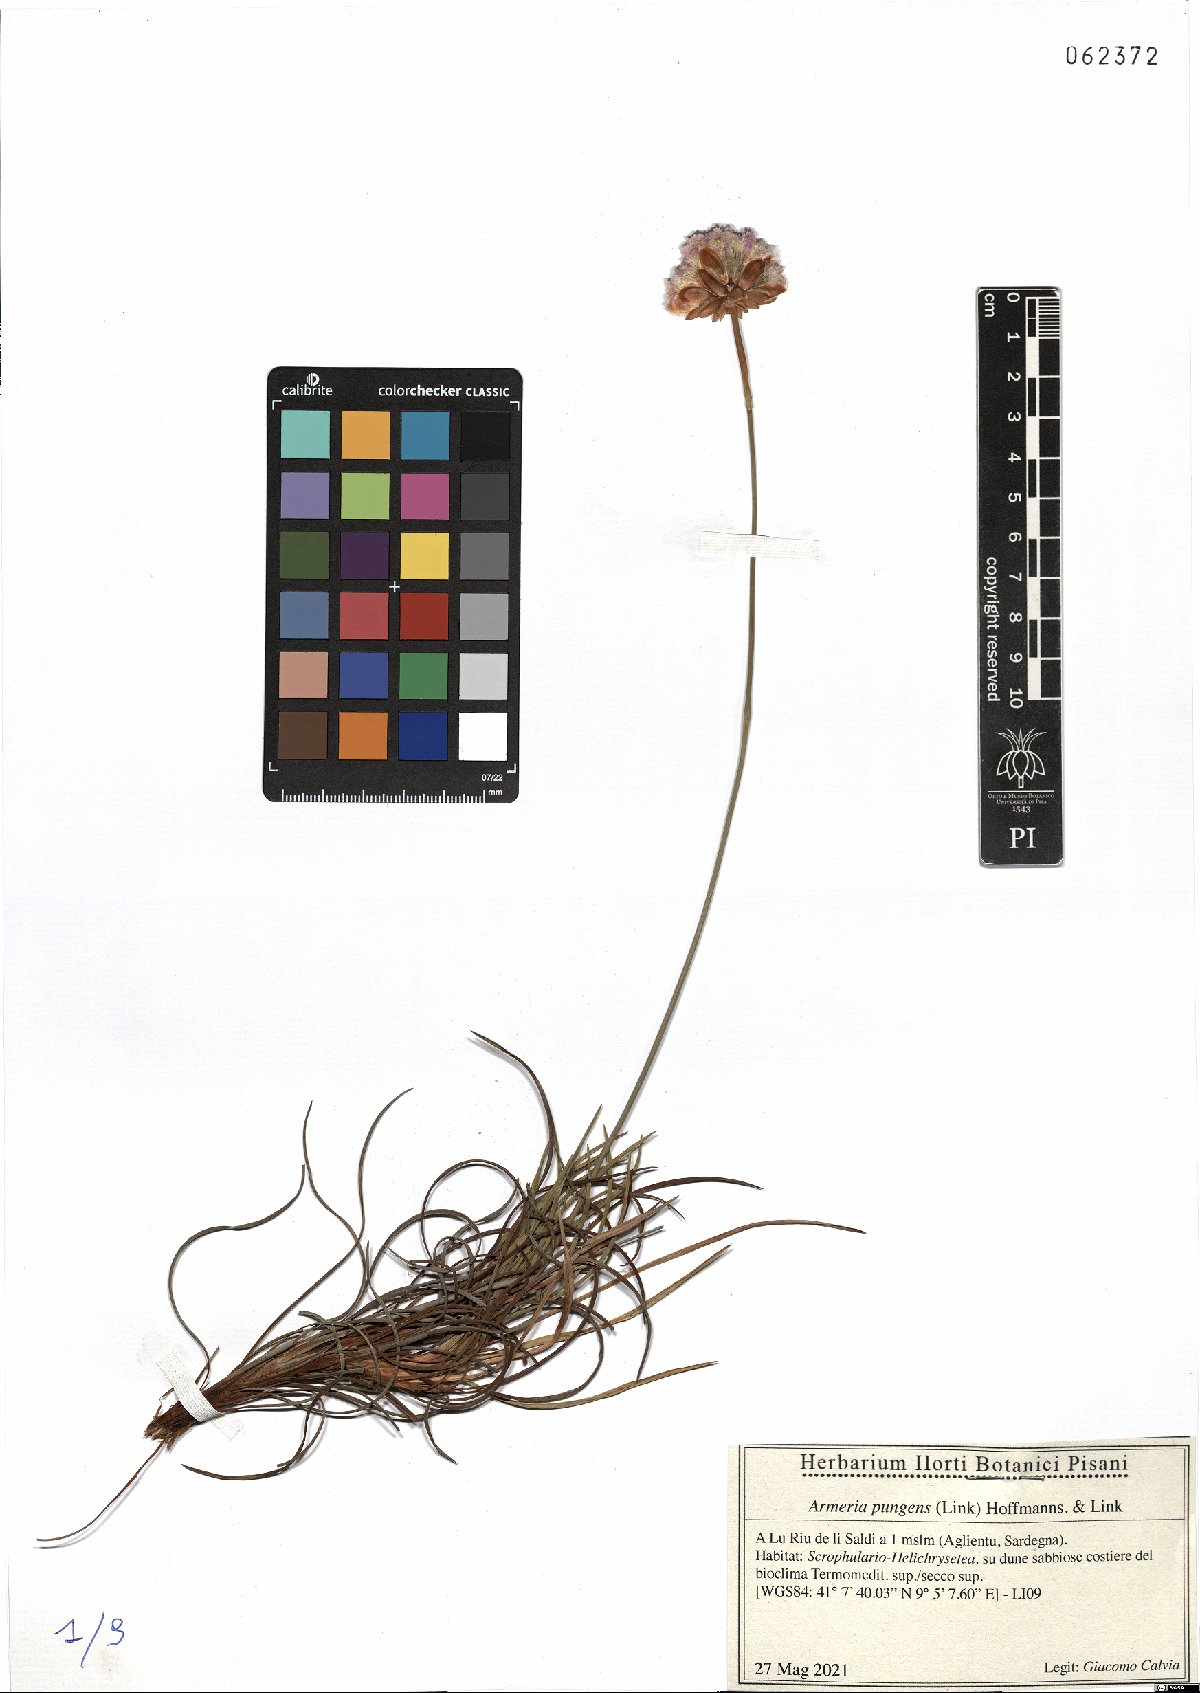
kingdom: Plantae
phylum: Tracheophyta
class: Magnoliopsida
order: Caryophyllales
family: Plumbaginaceae
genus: Armeria
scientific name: Armeria pungens
